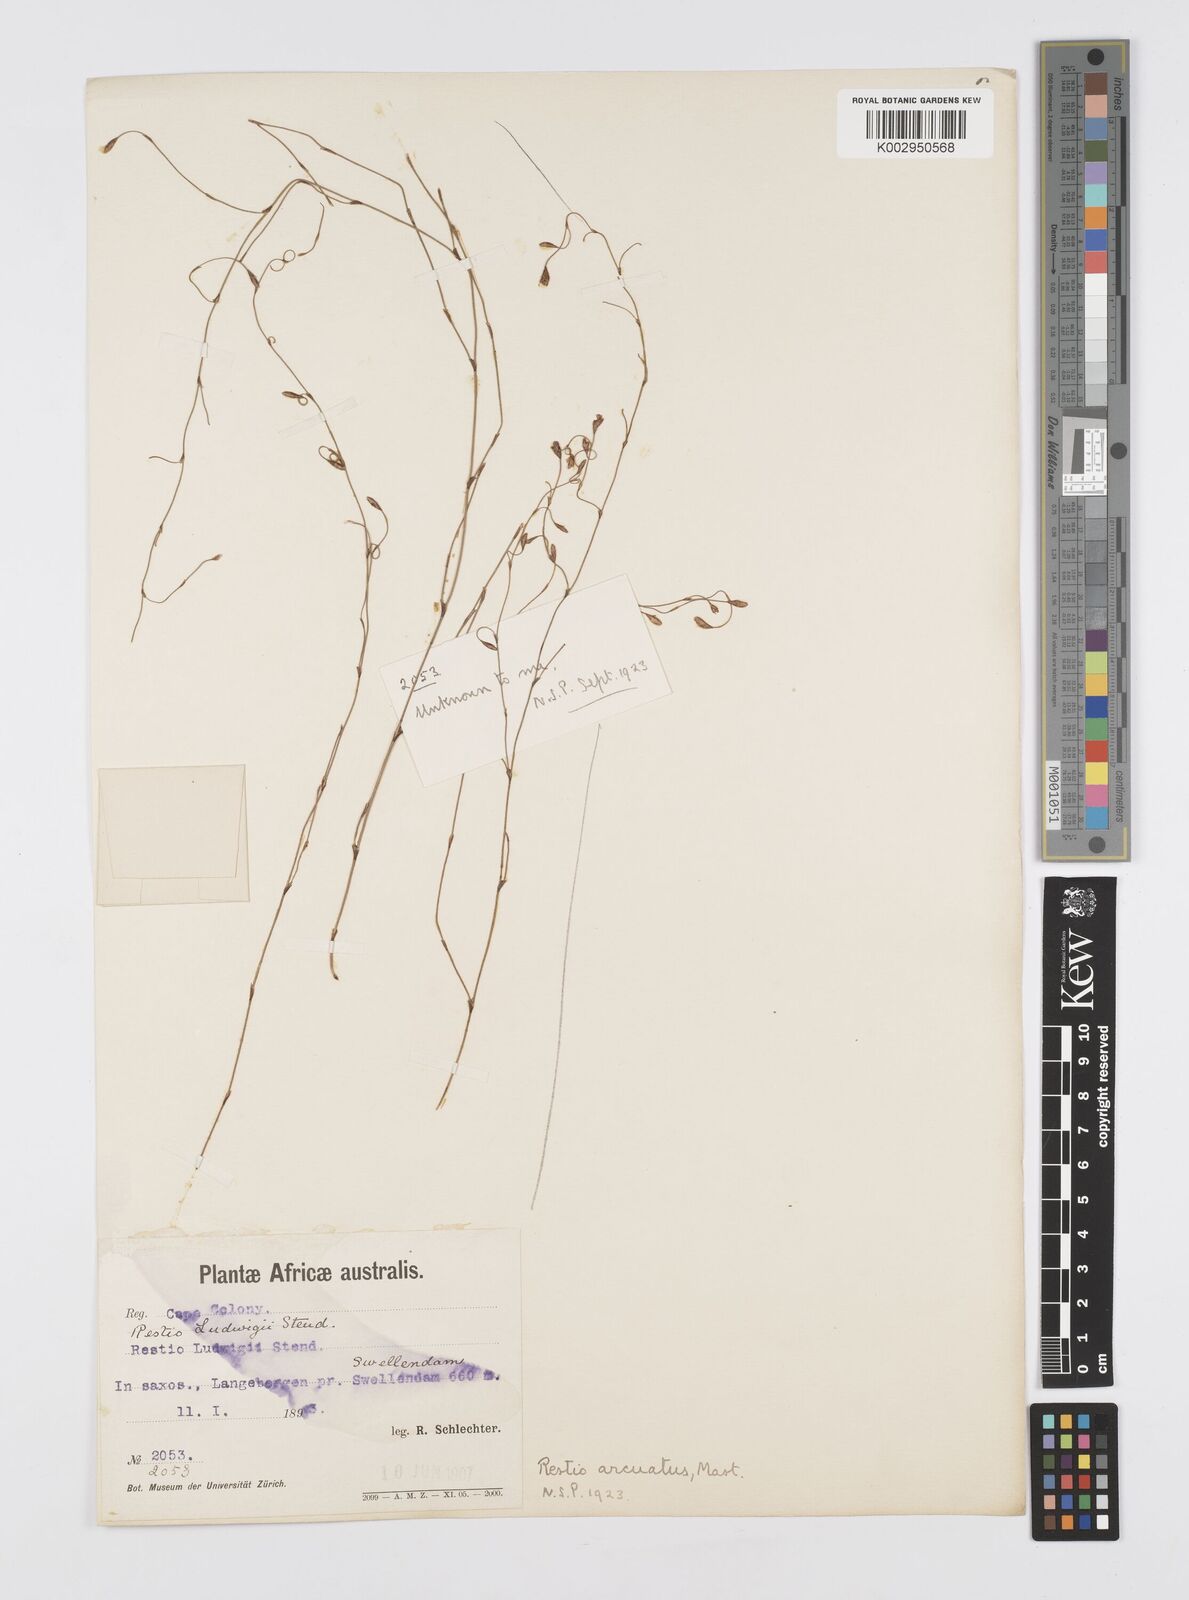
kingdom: Plantae
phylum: Tracheophyta
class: Liliopsida
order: Poales
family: Restionaceae
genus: Restio
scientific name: Restio arcuatus
